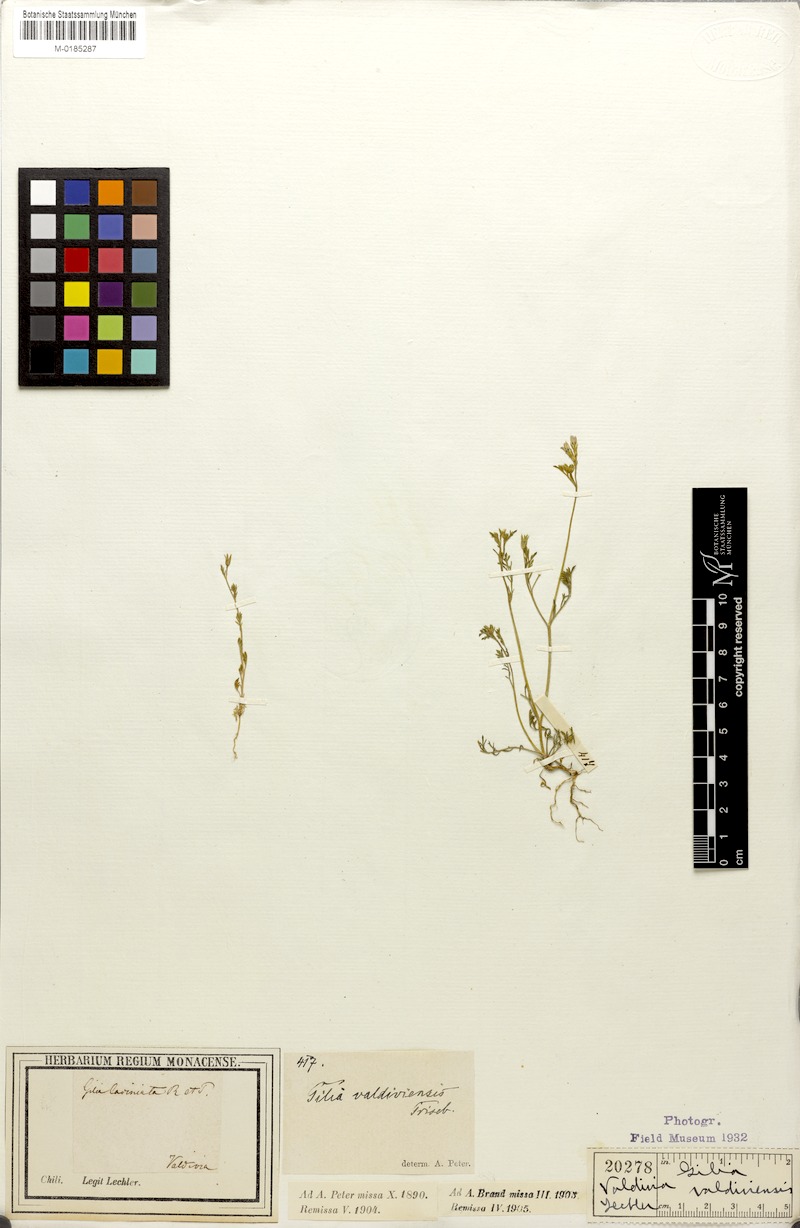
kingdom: Plantae
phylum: Tracheophyta
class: Magnoliopsida
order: Ericales
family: Polemoniaceae
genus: Gilia
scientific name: Gilia valdiviensis
